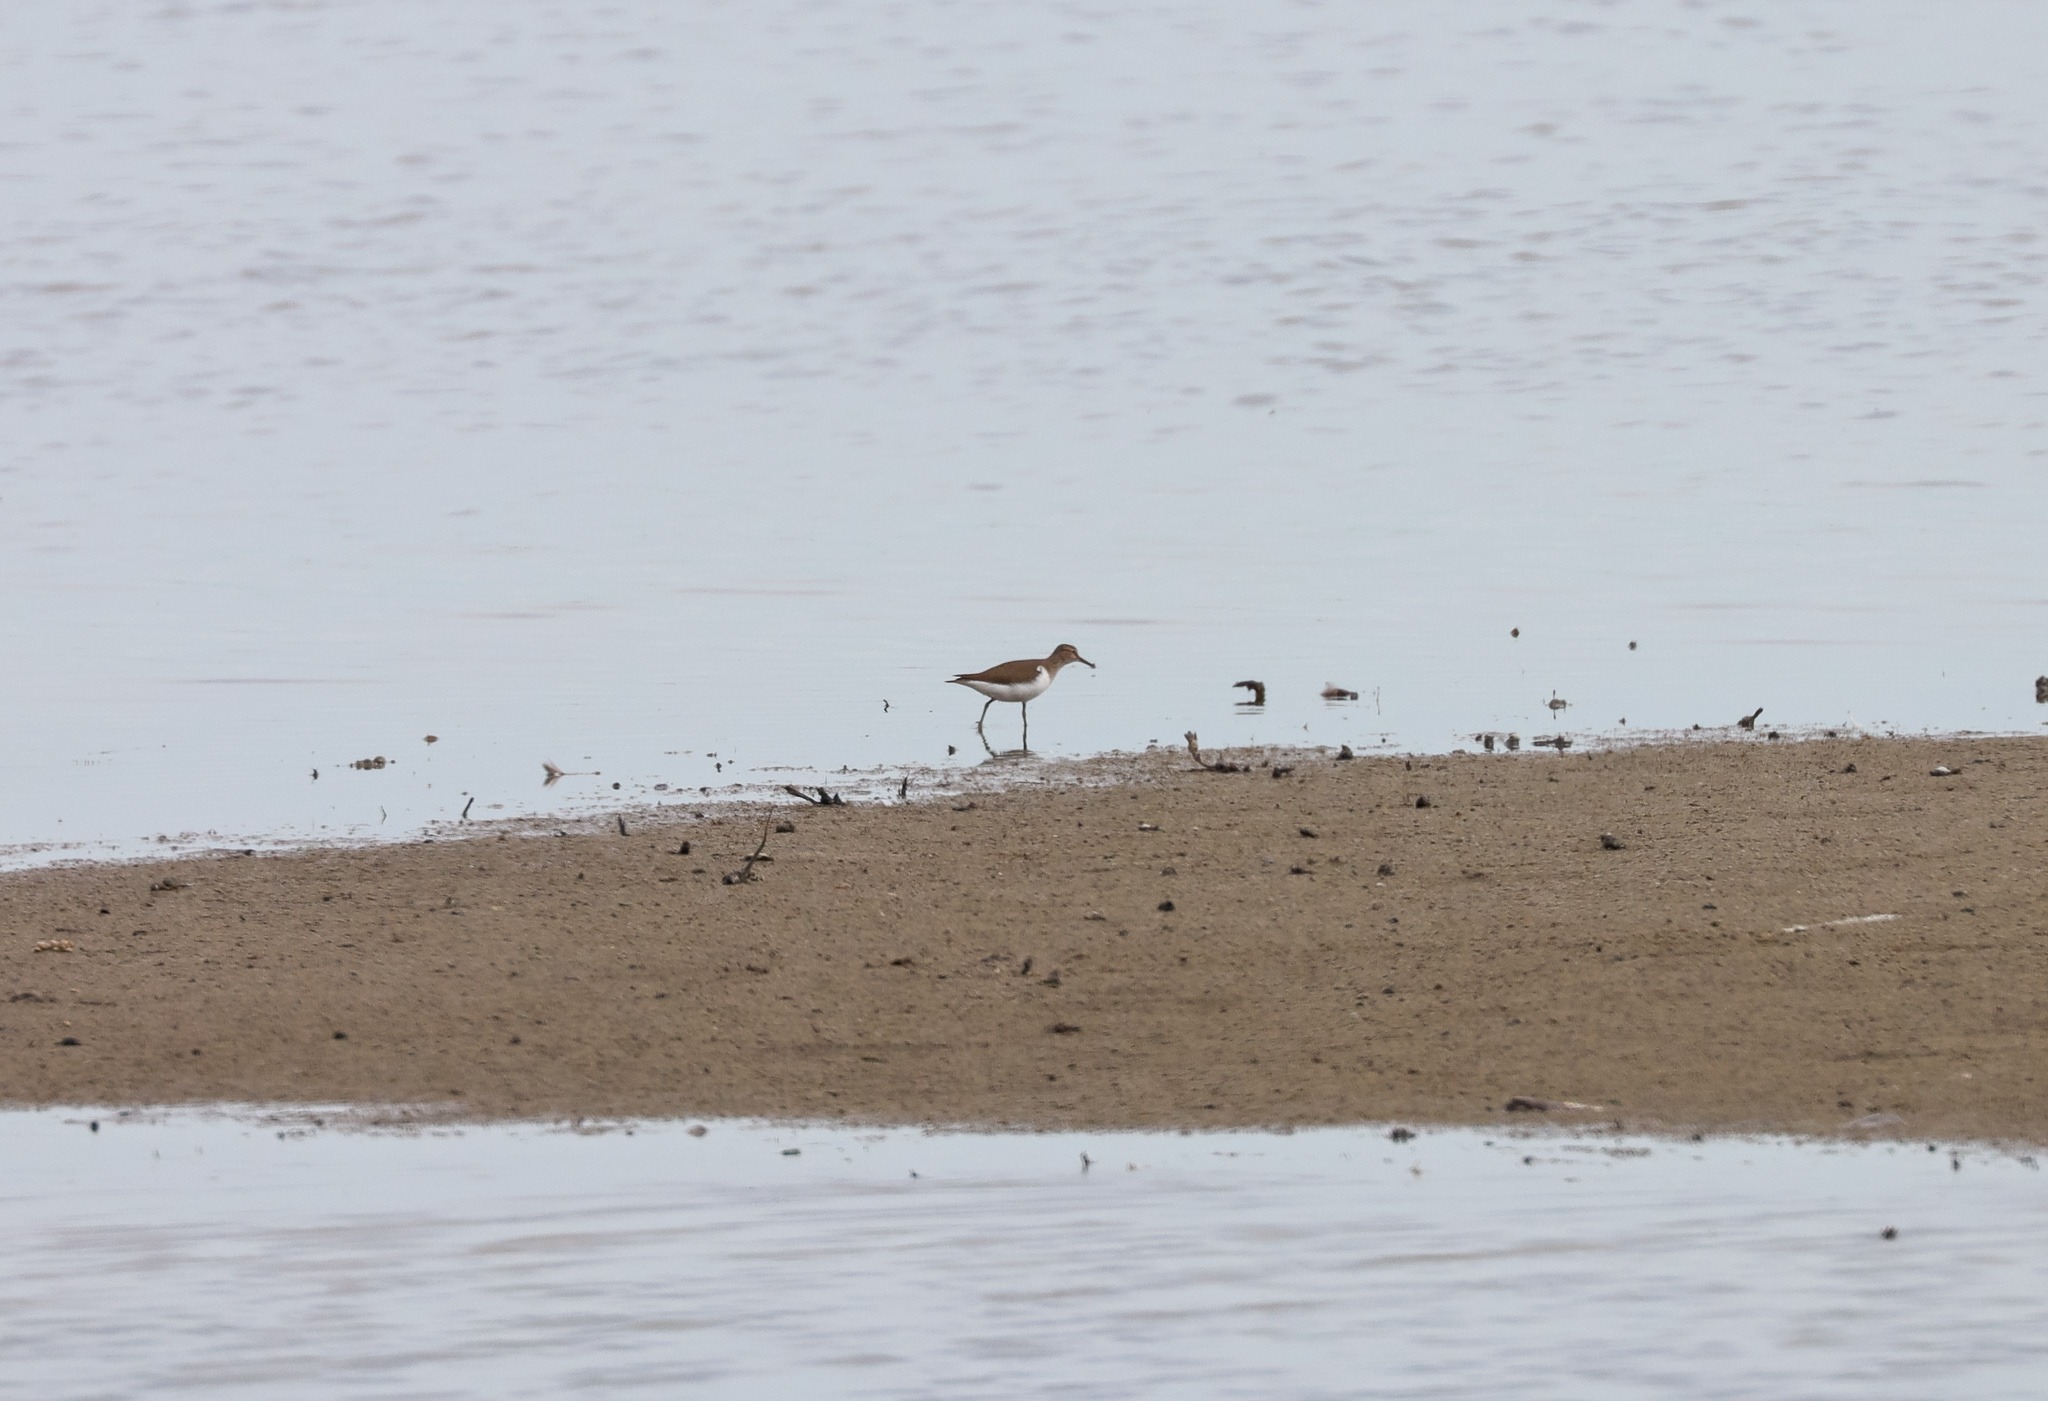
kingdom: Animalia
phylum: Chordata
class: Aves
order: Charadriiformes
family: Scolopacidae
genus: Actitis
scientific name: Actitis hypoleucos
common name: Mudderklire
